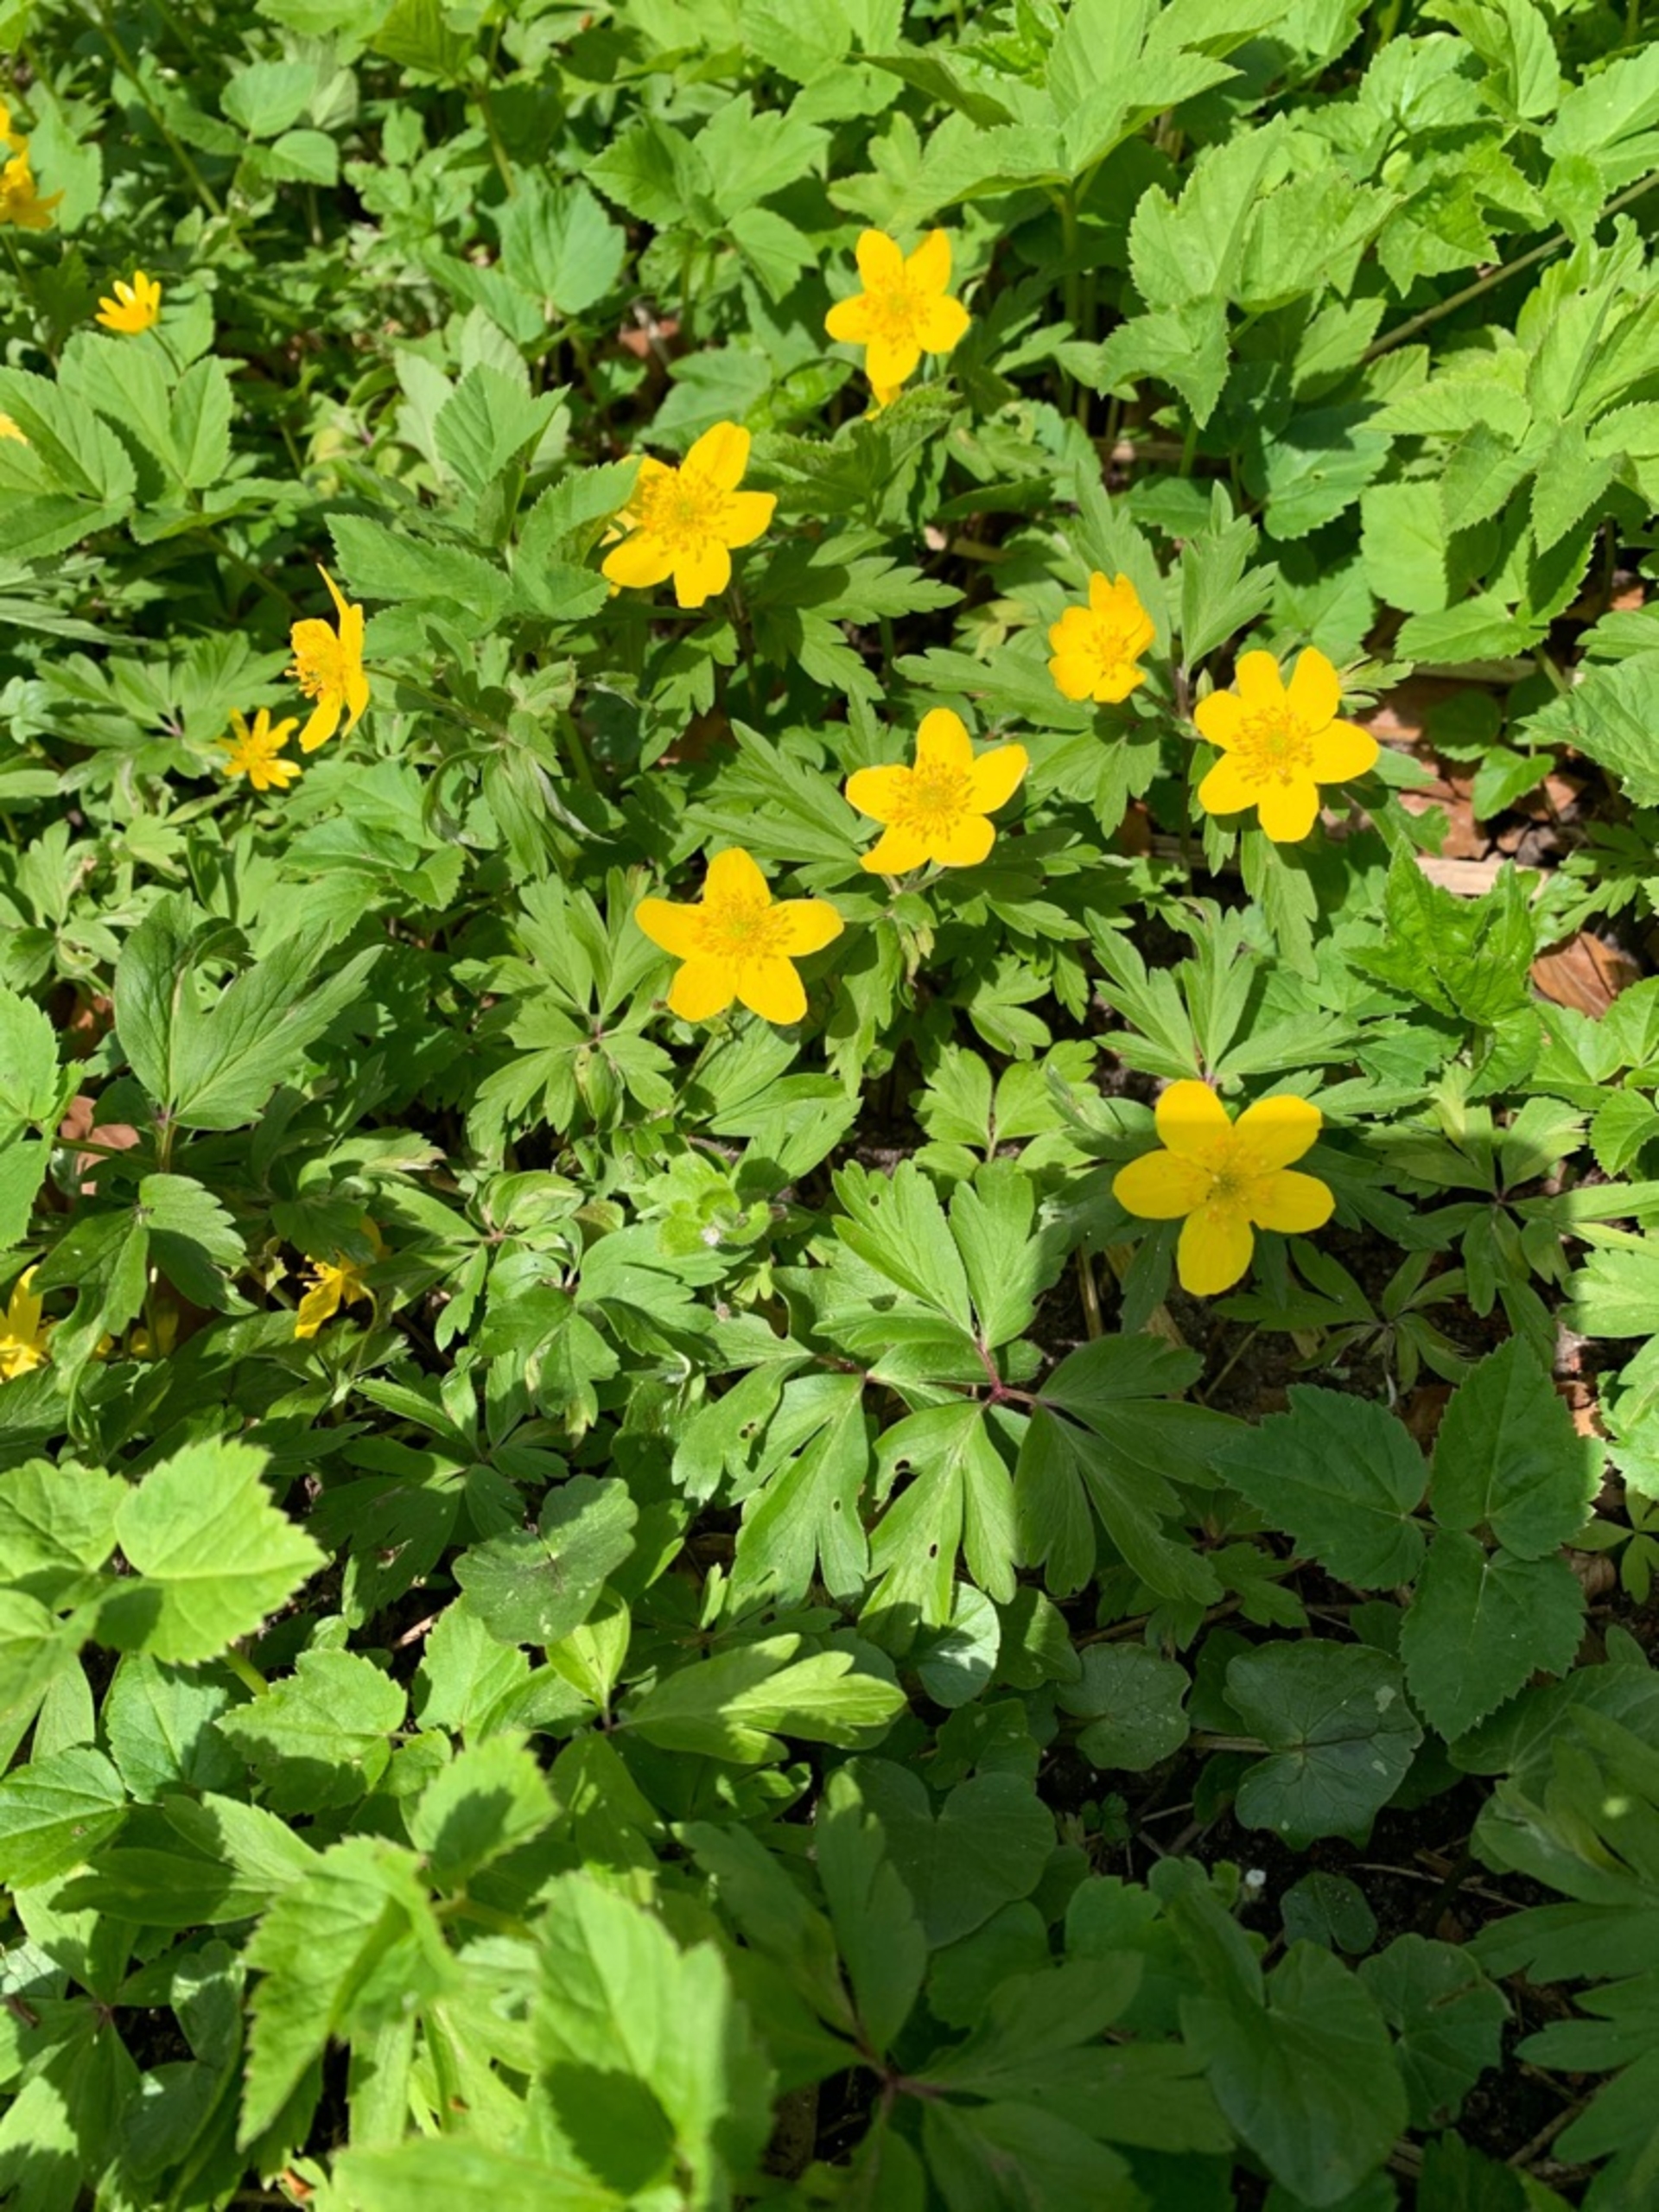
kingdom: Plantae
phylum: Tracheophyta
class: Magnoliopsida
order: Ranunculales
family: Ranunculaceae
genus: Anemone
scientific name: Anemone ranunculoides
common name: Gul anemone
